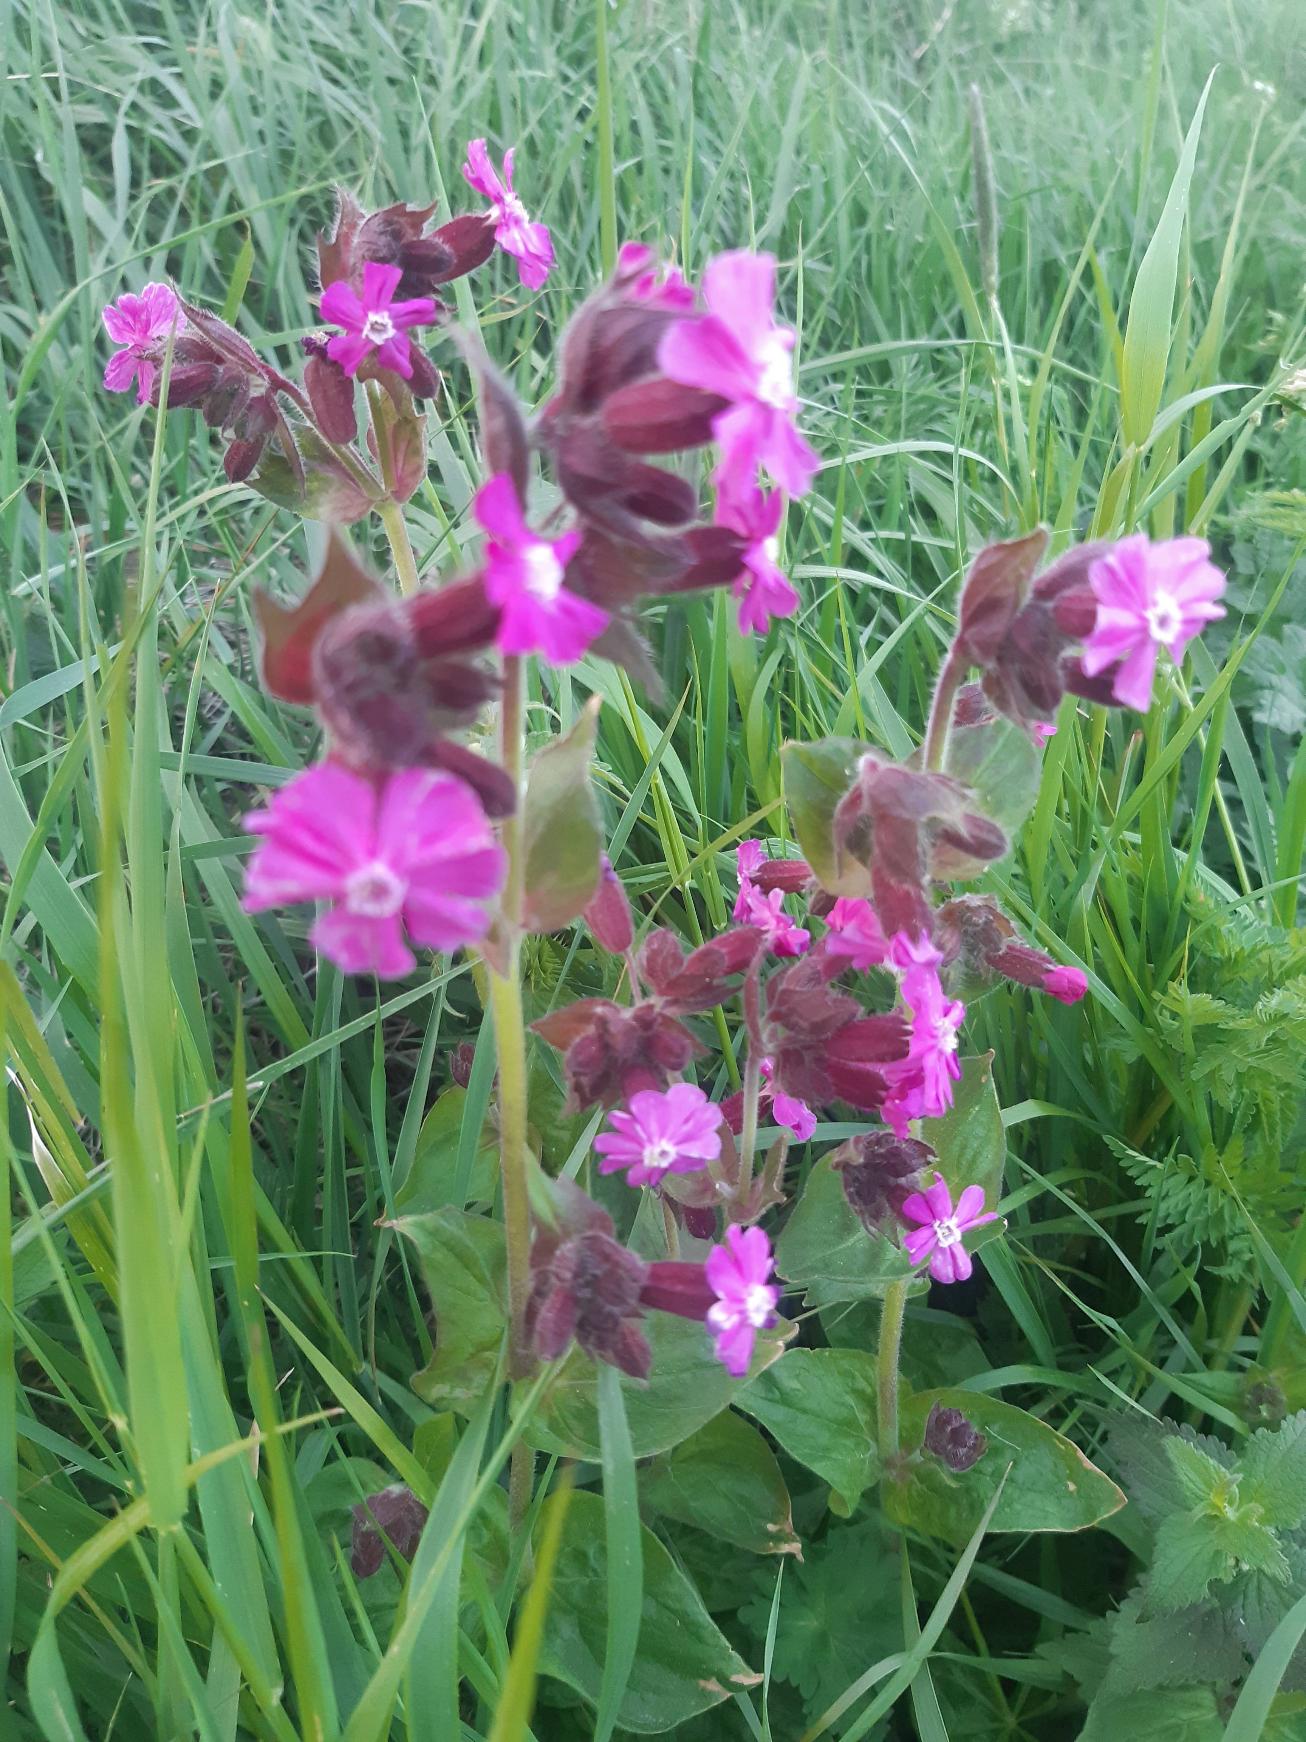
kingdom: Plantae
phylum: Tracheophyta
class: Magnoliopsida
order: Caryophyllales
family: Caryophyllaceae
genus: Silene
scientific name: Silene dioica
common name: Dagpragtstjerne
